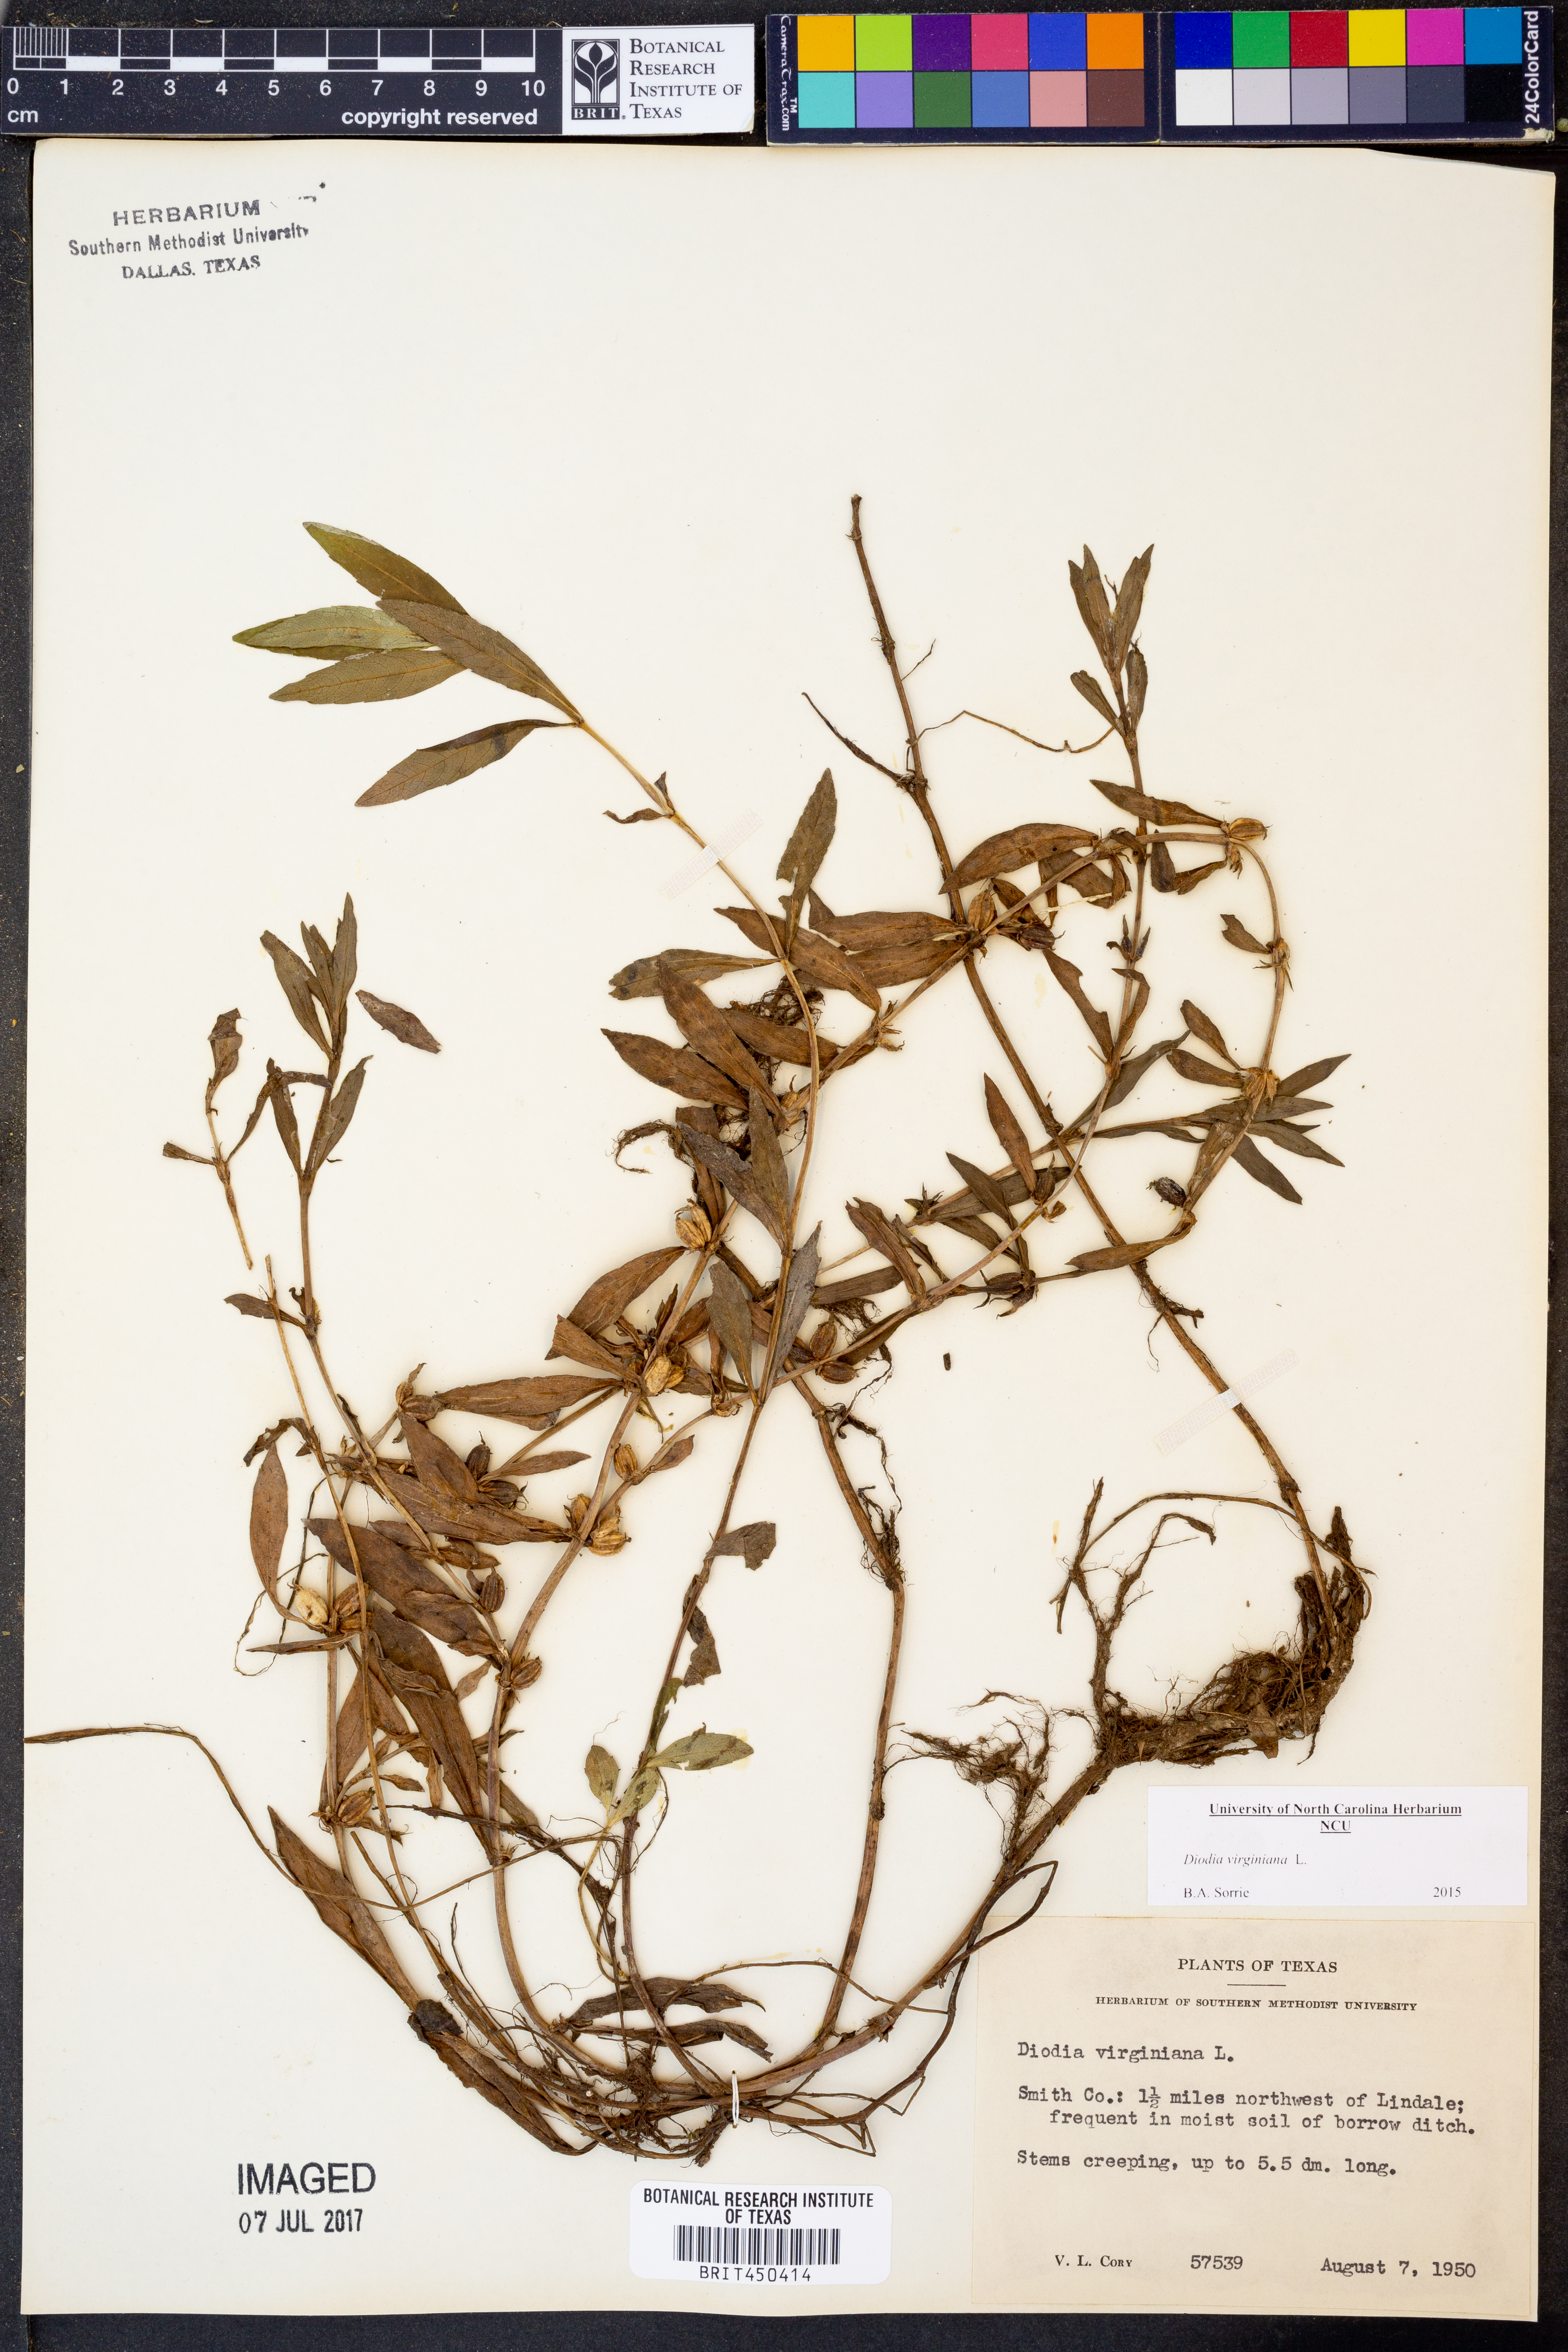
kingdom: Plantae
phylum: Tracheophyta
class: Magnoliopsida
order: Gentianales
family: Rubiaceae
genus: Diodia
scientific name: Diodia virginiana
